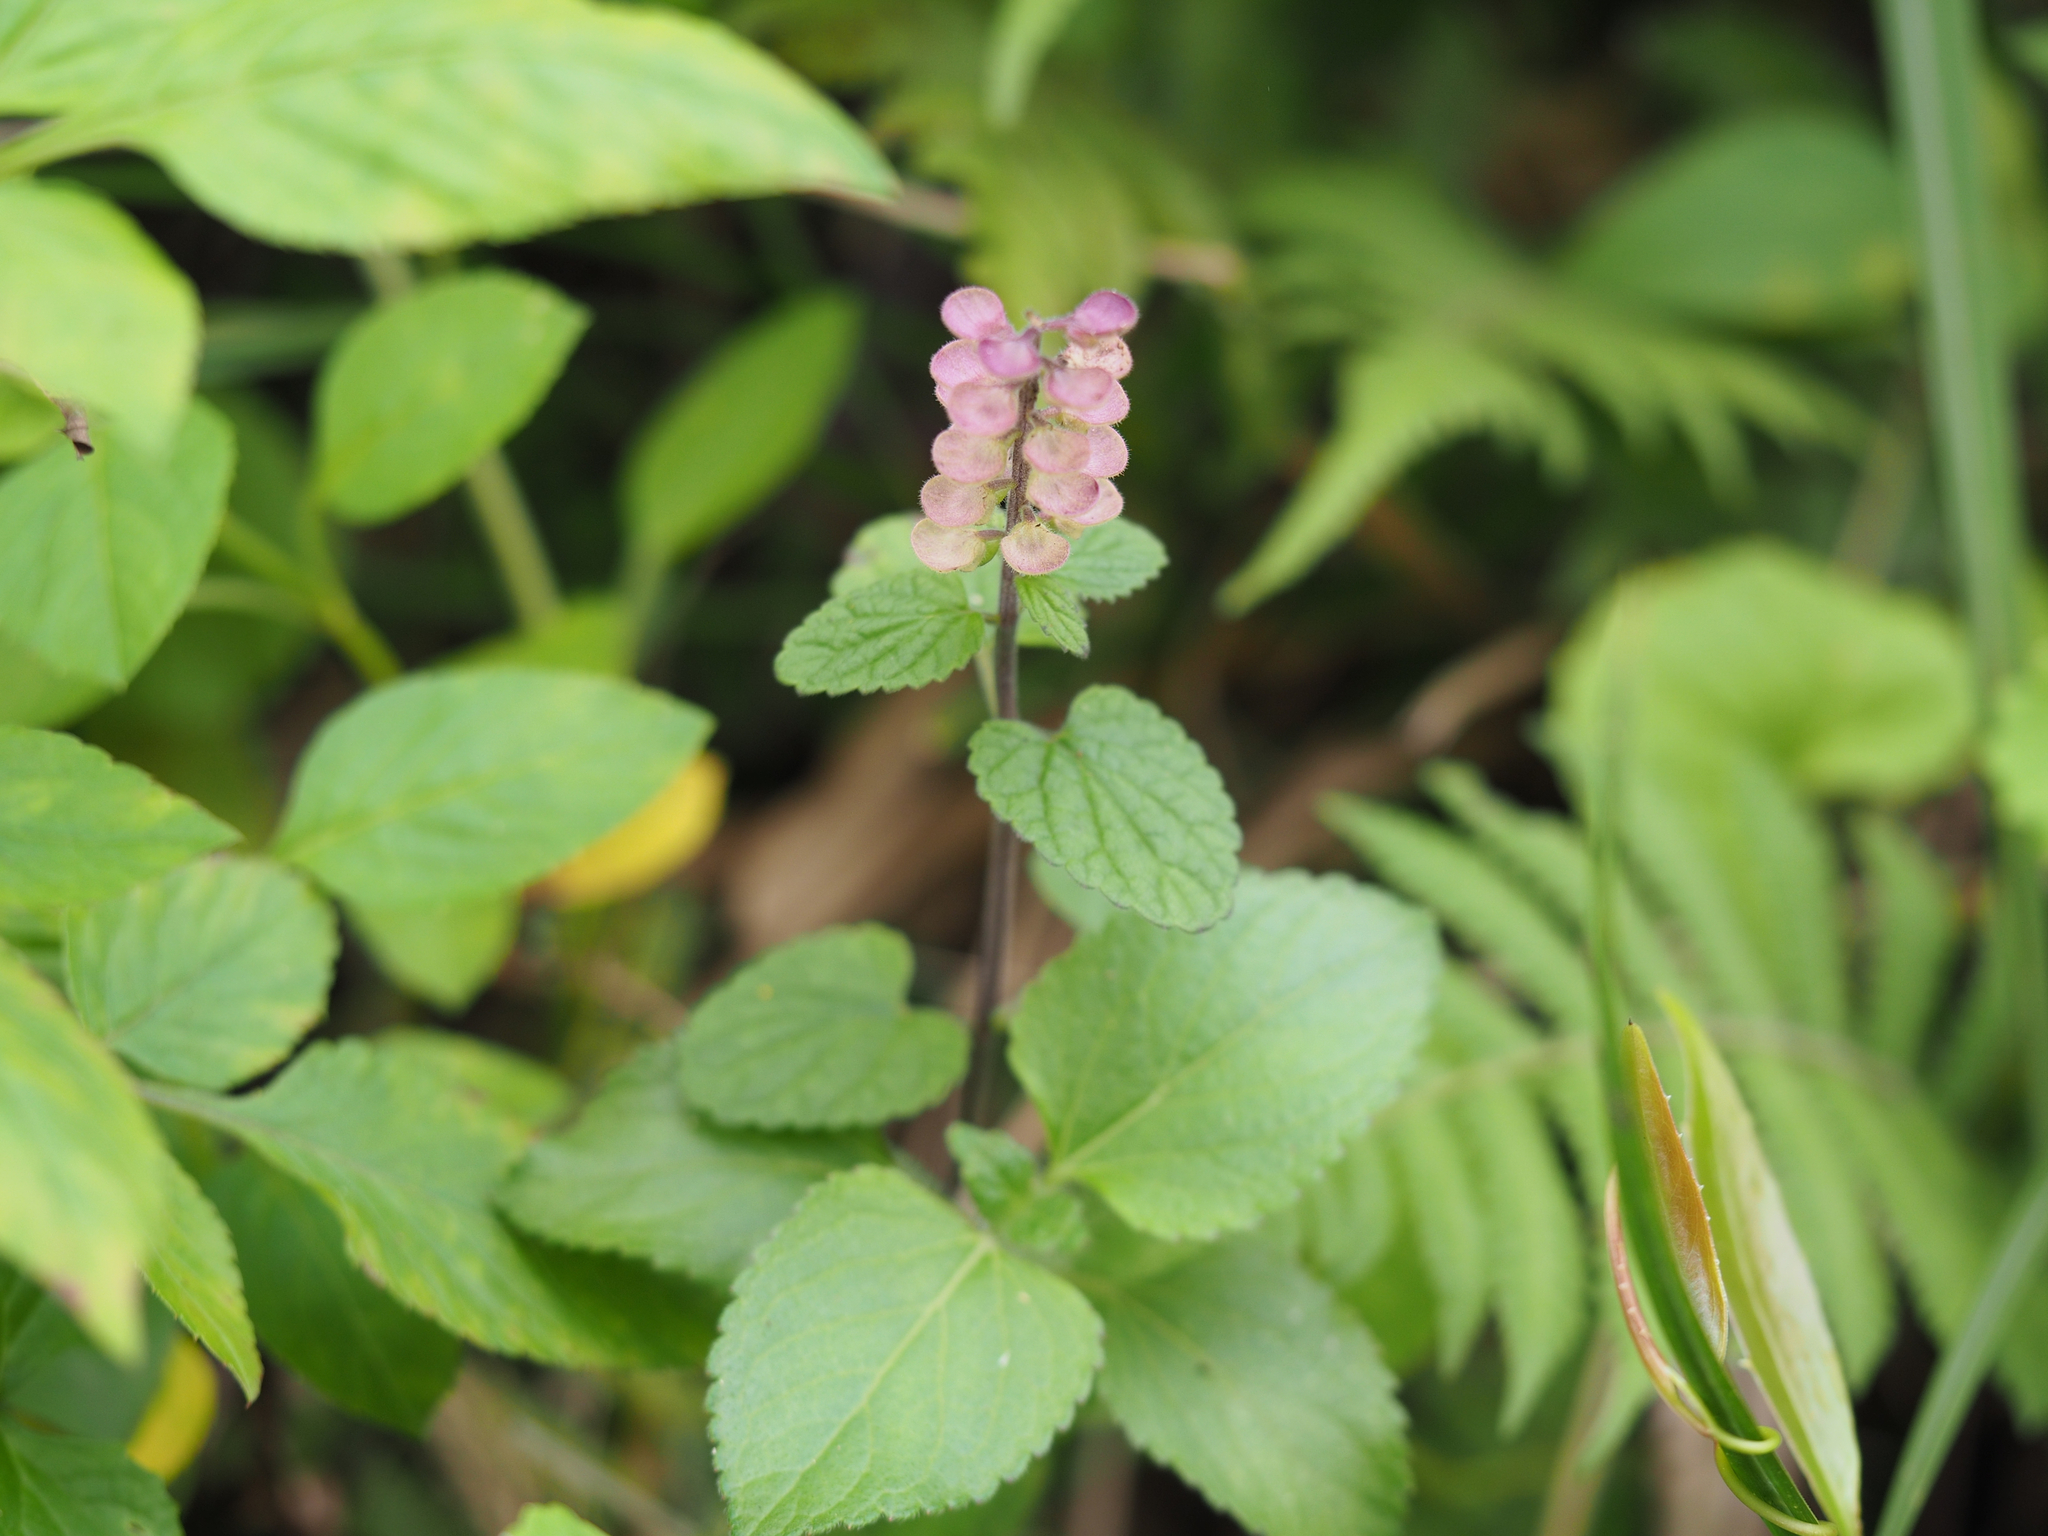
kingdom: Plantae
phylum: Tracheophyta
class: Magnoliopsida
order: Lamiales
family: Lamiaceae
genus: Scutellaria
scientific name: Scutellaria indica
